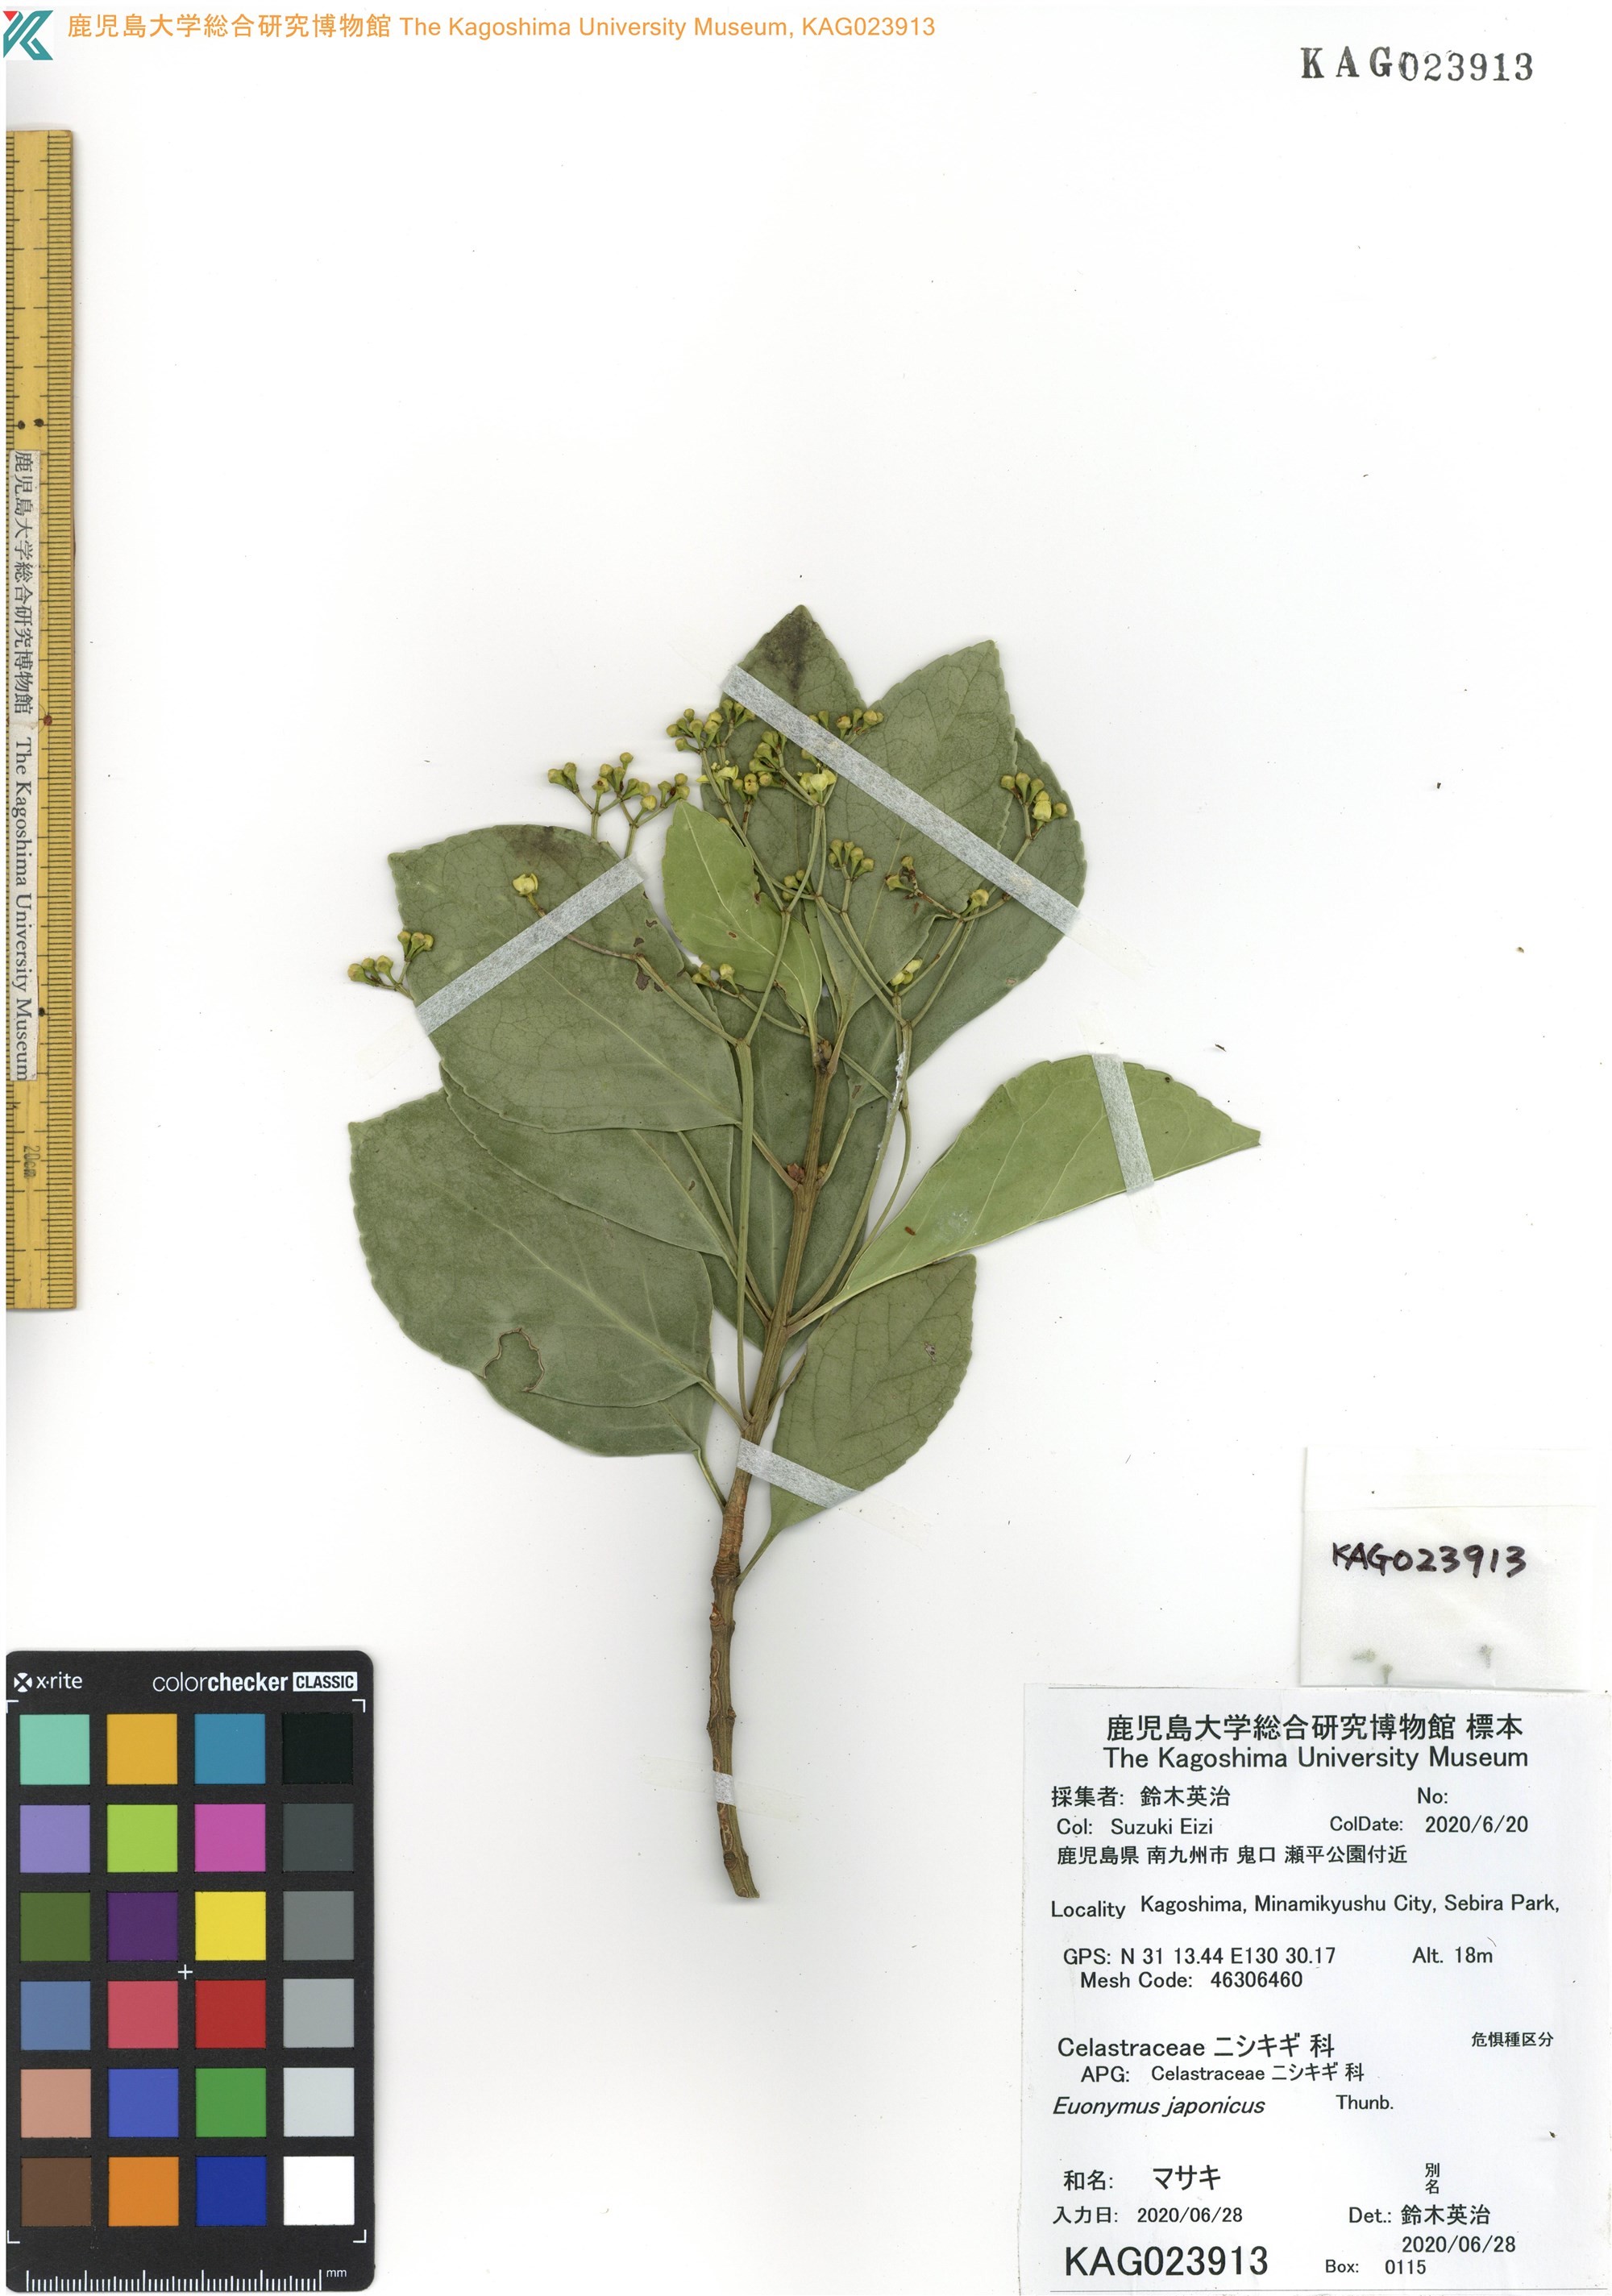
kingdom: Plantae
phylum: Tracheophyta
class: Magnoliopsida
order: Celastrales
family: Celastraceae
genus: Euonymus
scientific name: Euonymus japonicus
